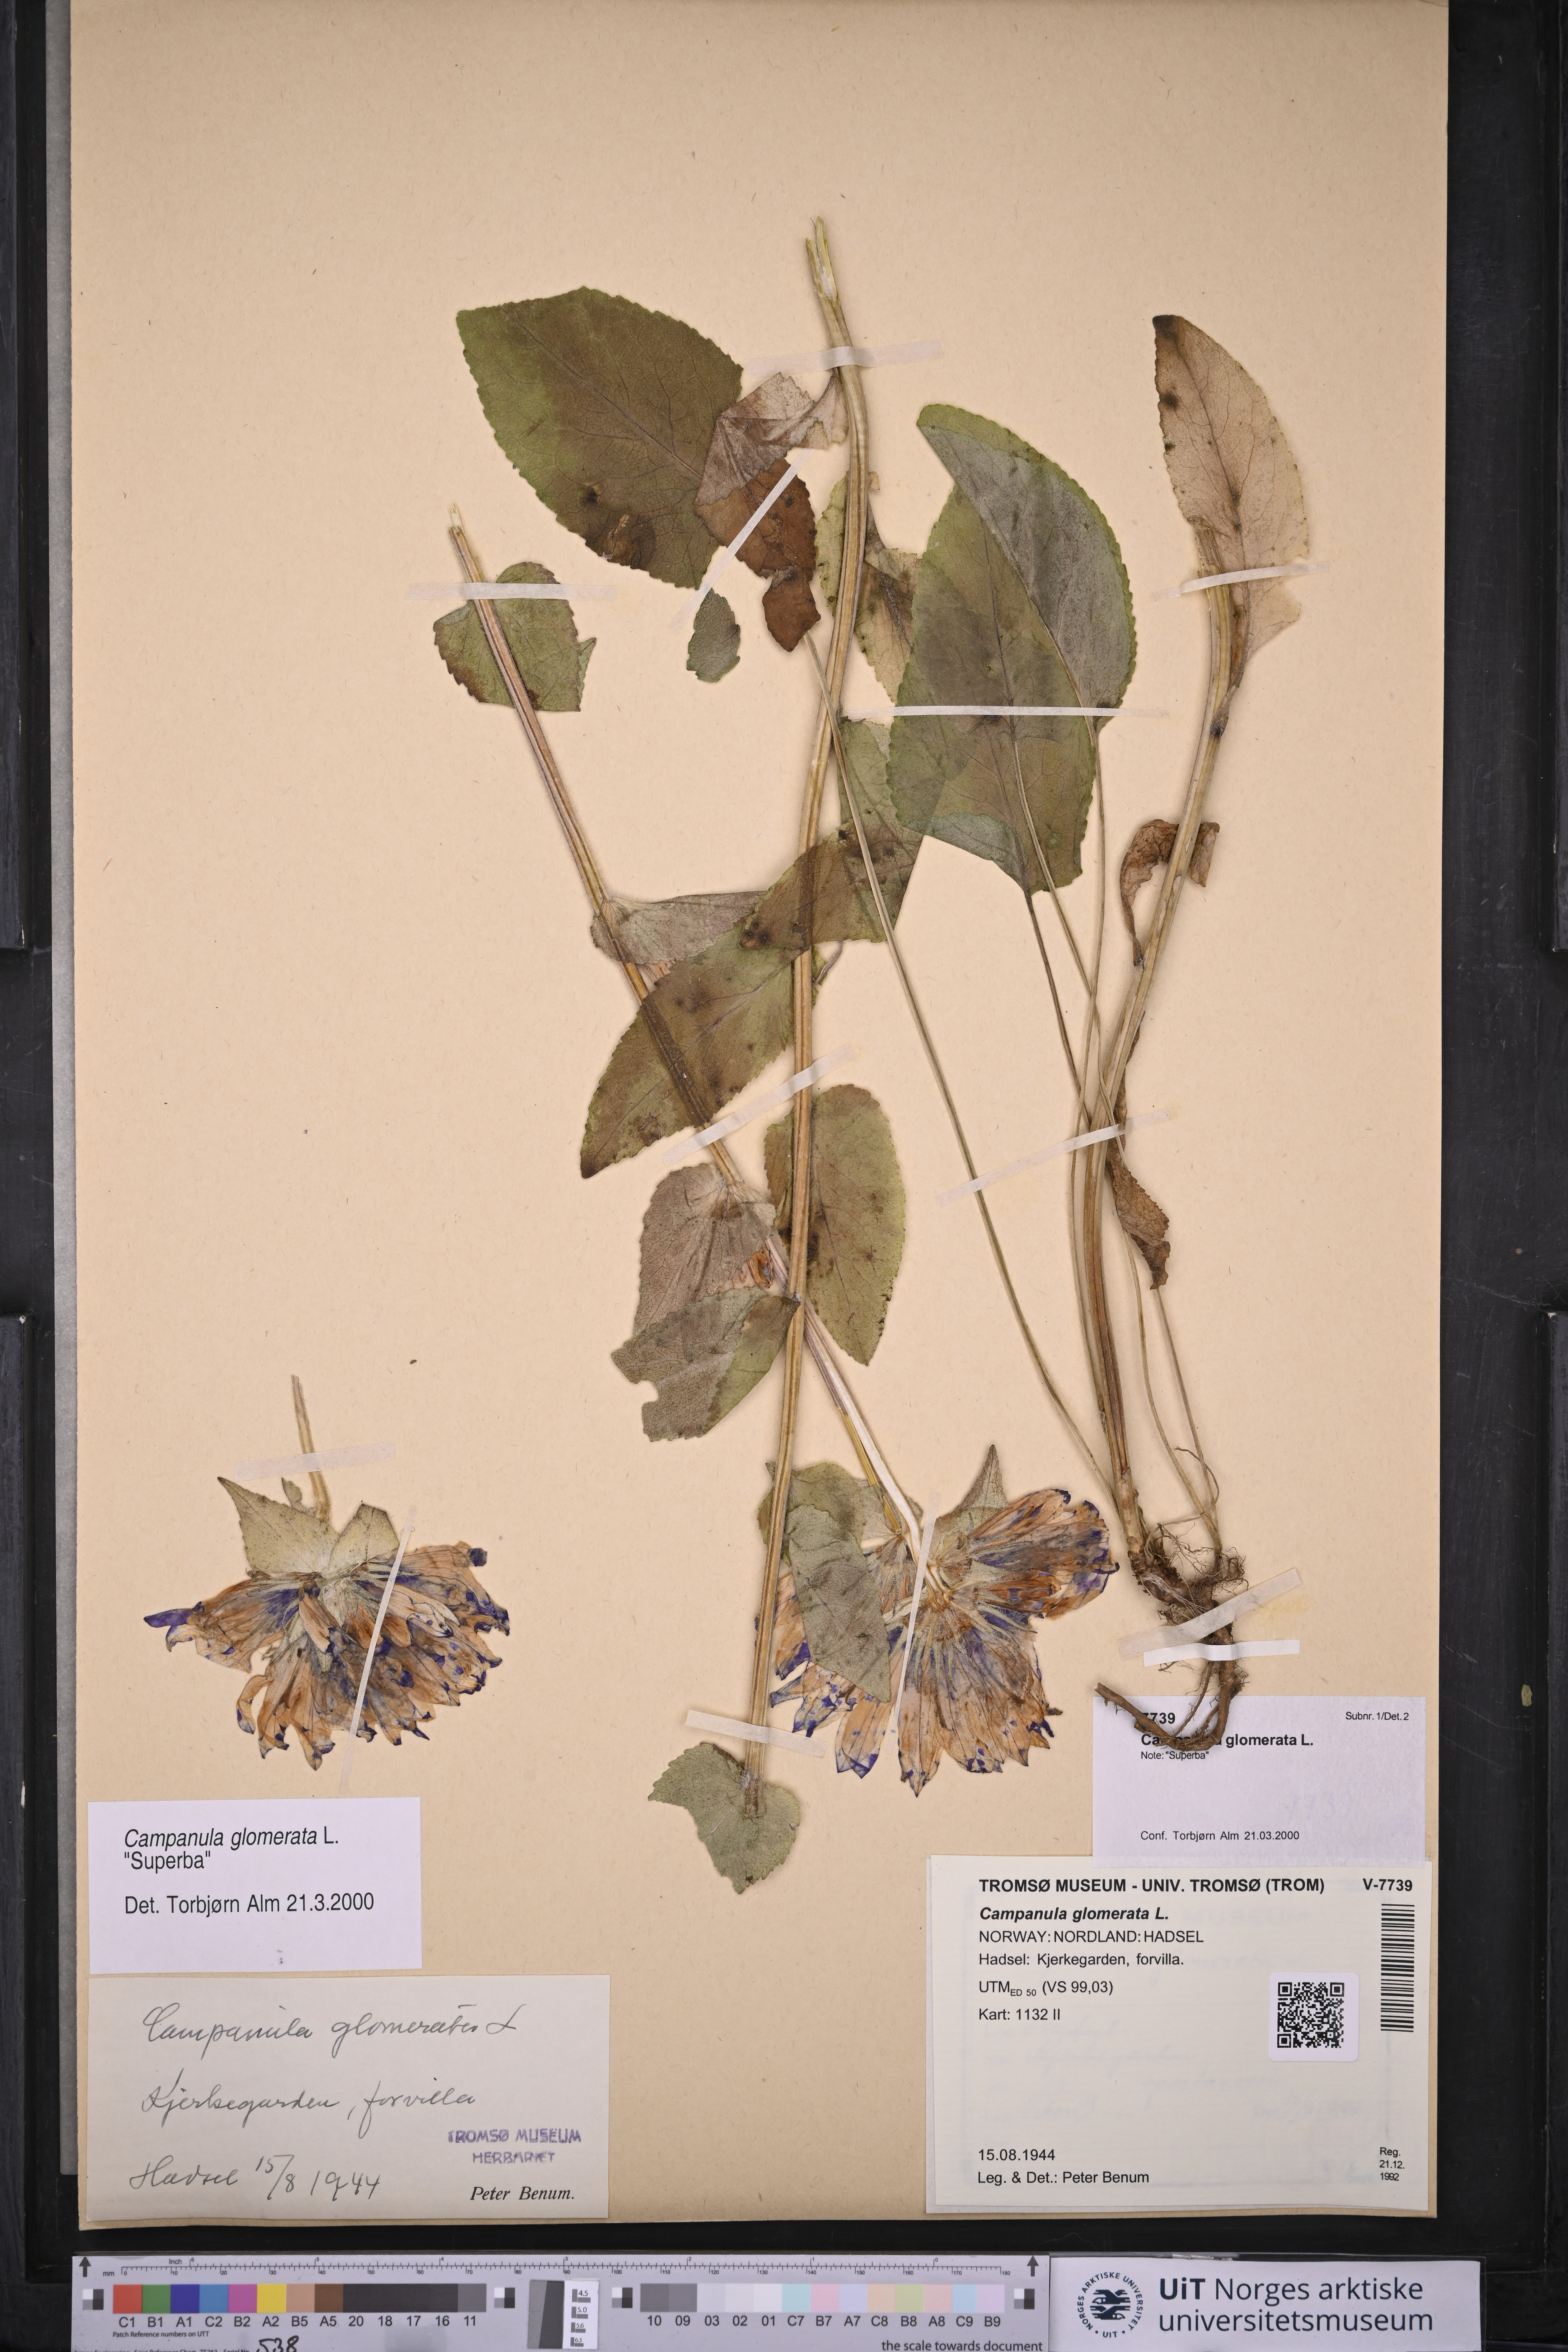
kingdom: Plantae
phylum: Tracheophyta
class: Magnoliopsida
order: Asterales
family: Campanulaceae
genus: Campanula
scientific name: Campanula glomerata
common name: Clustered bellflower
